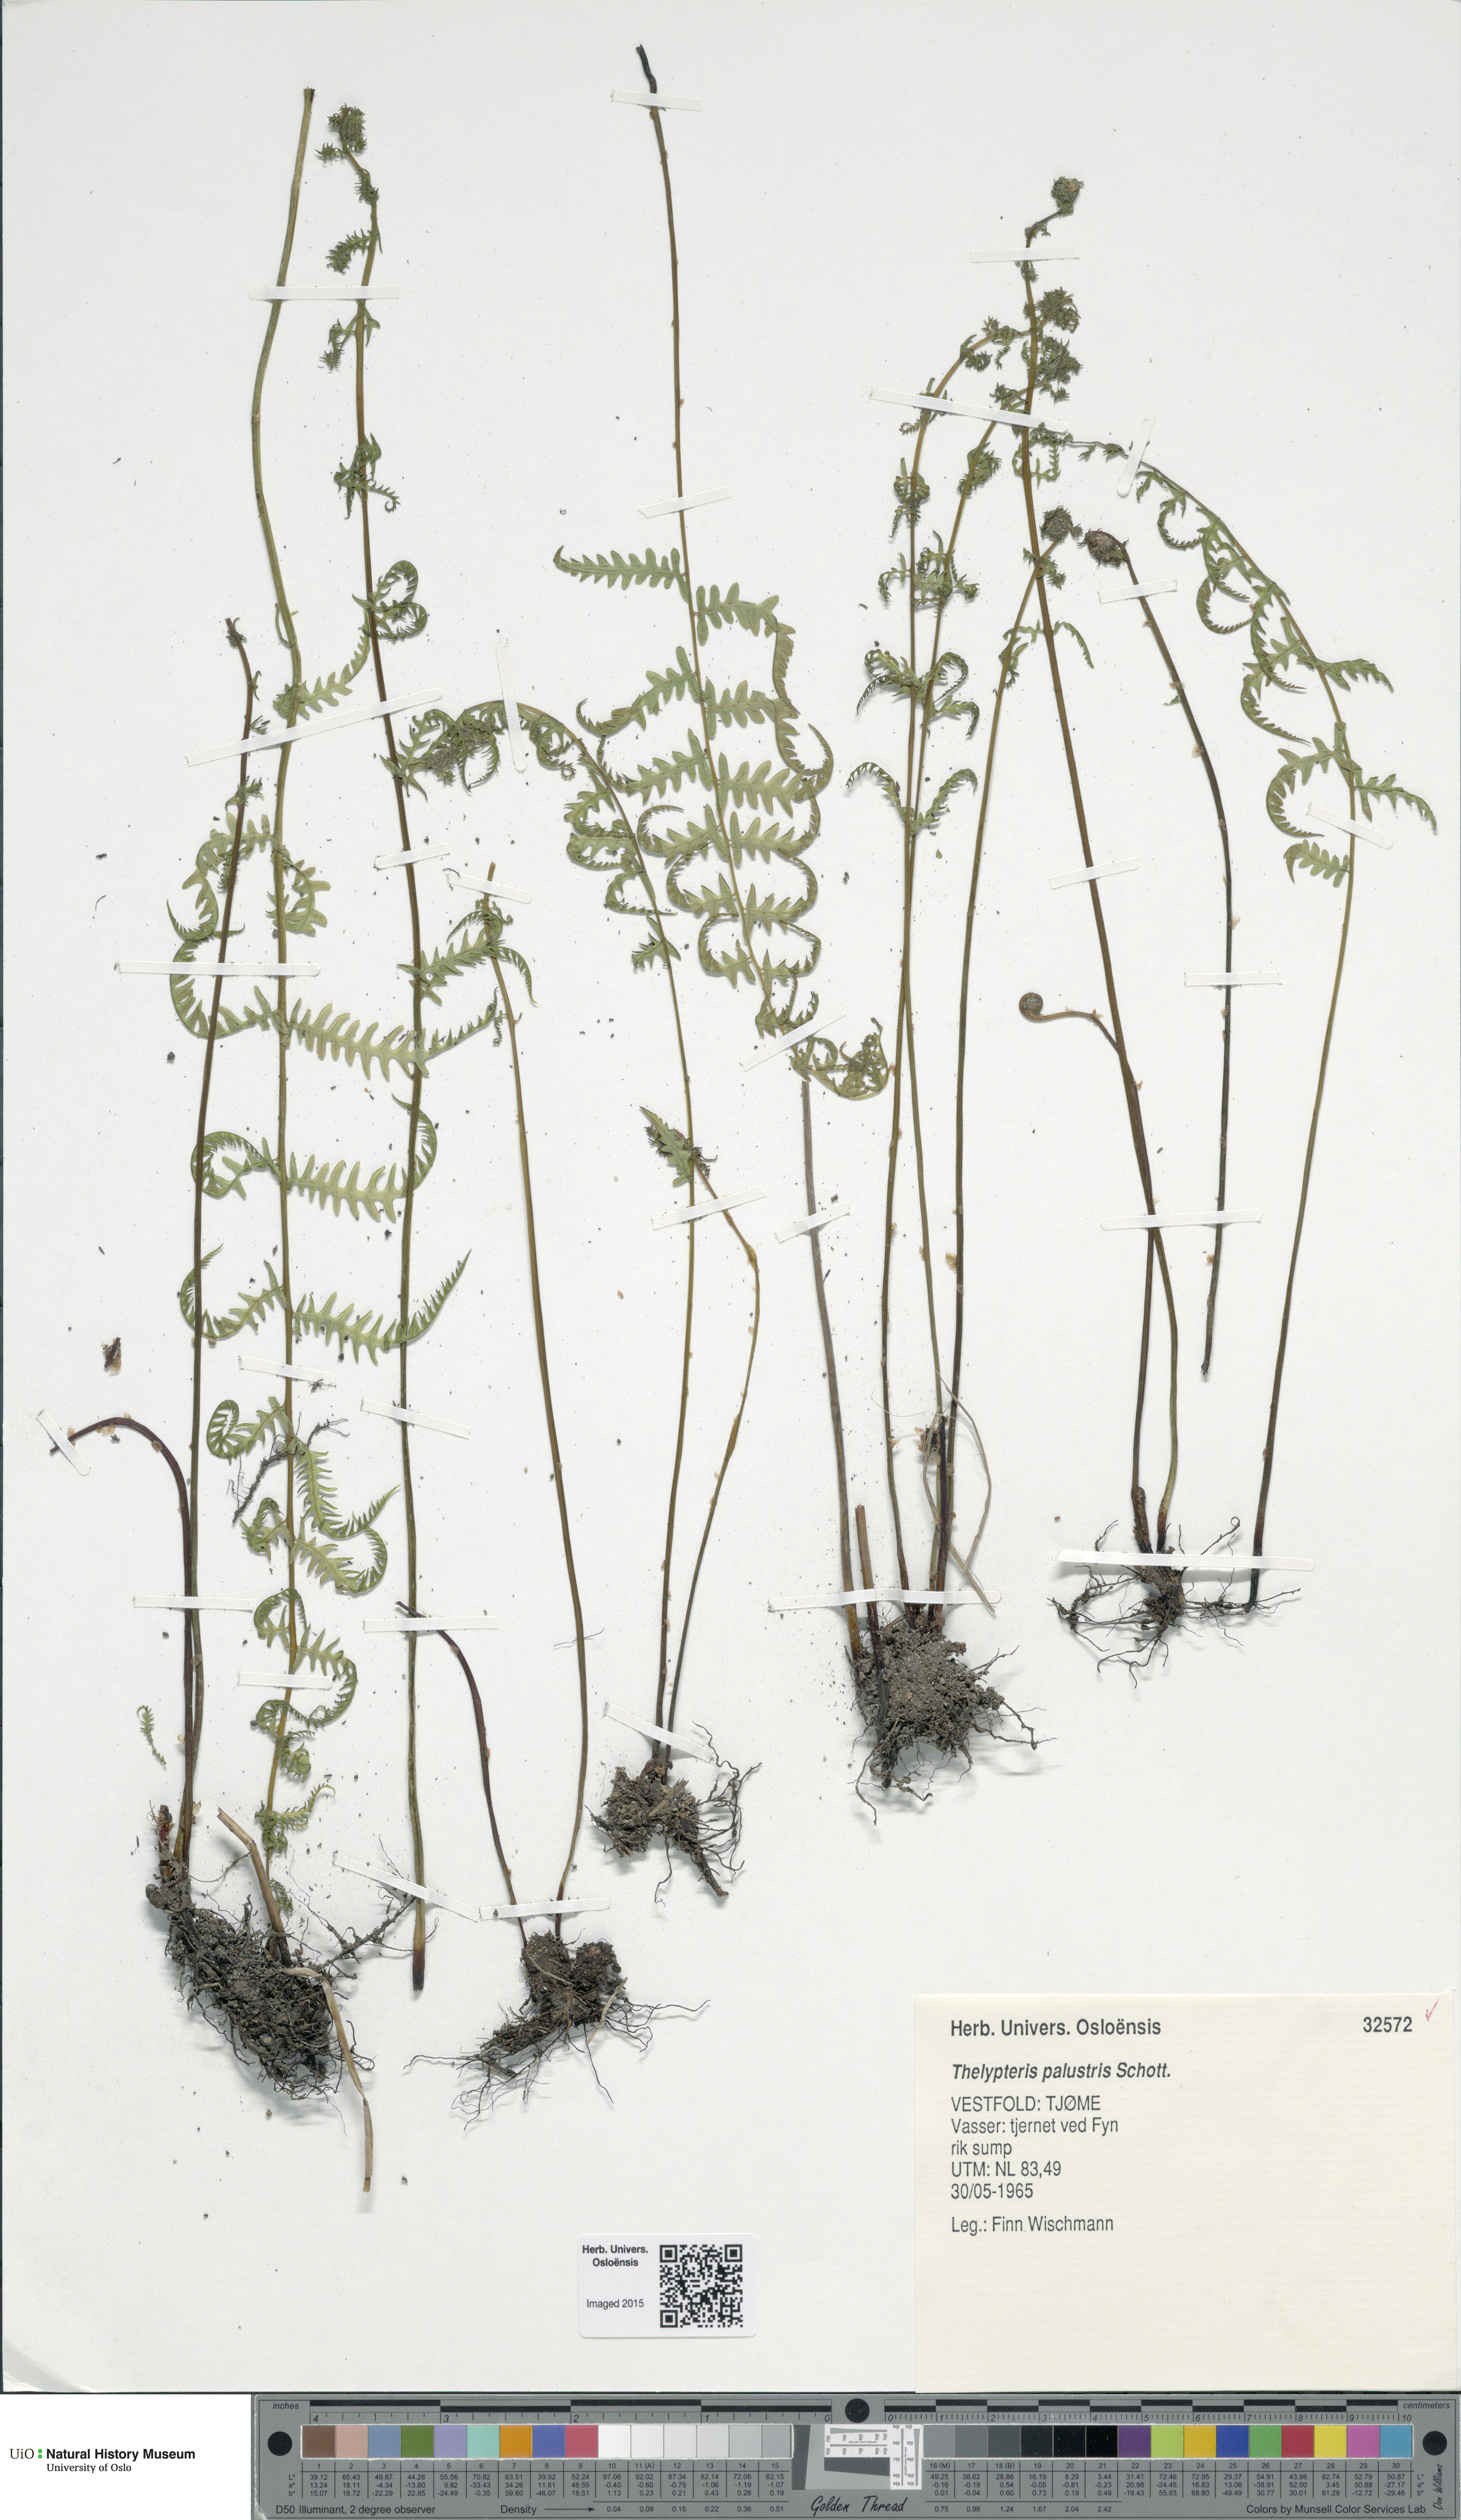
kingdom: Plantae
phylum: Tracheophyta
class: Polypodiopsida
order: Polypodiales
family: Thelypteridaceae
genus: Thelypteris
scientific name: Thelypteris palustris
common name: Marsh fern
